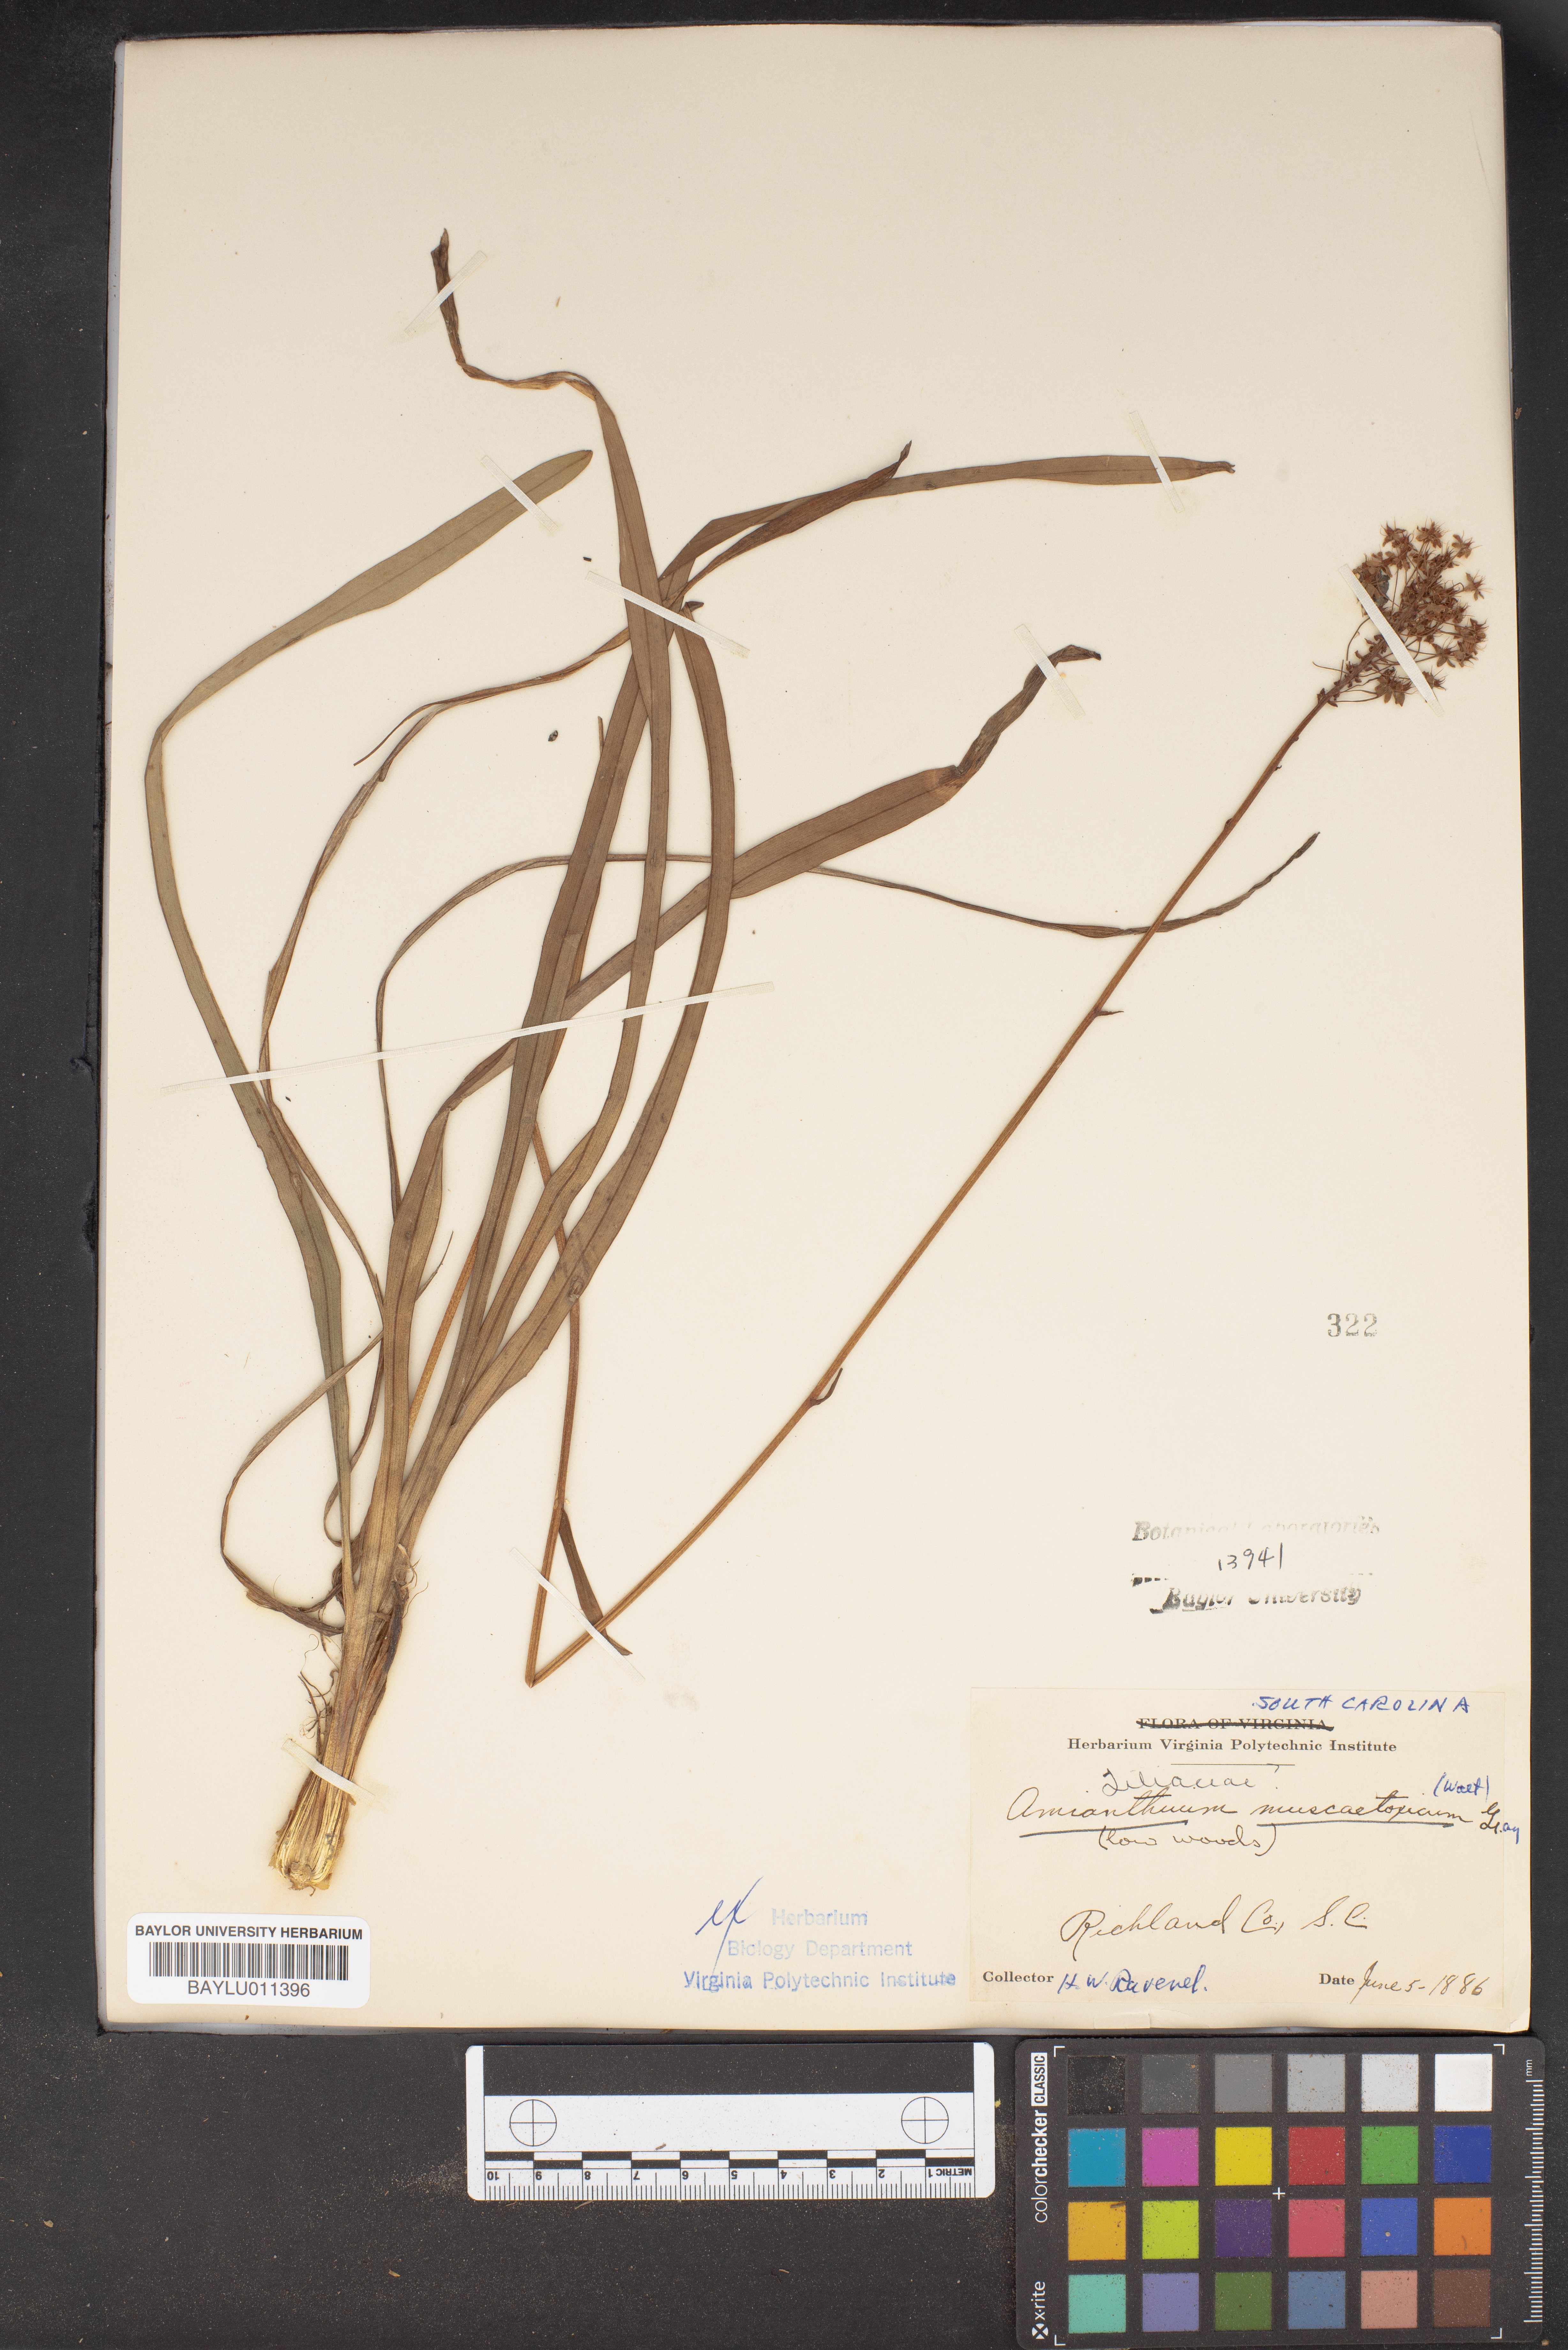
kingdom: Plantae
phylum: Tracheophyta
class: Liliopsida
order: Liliales
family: Melanthiaceae
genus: Amianthium
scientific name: Amianthium muscitoxicum
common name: Fly-poison
